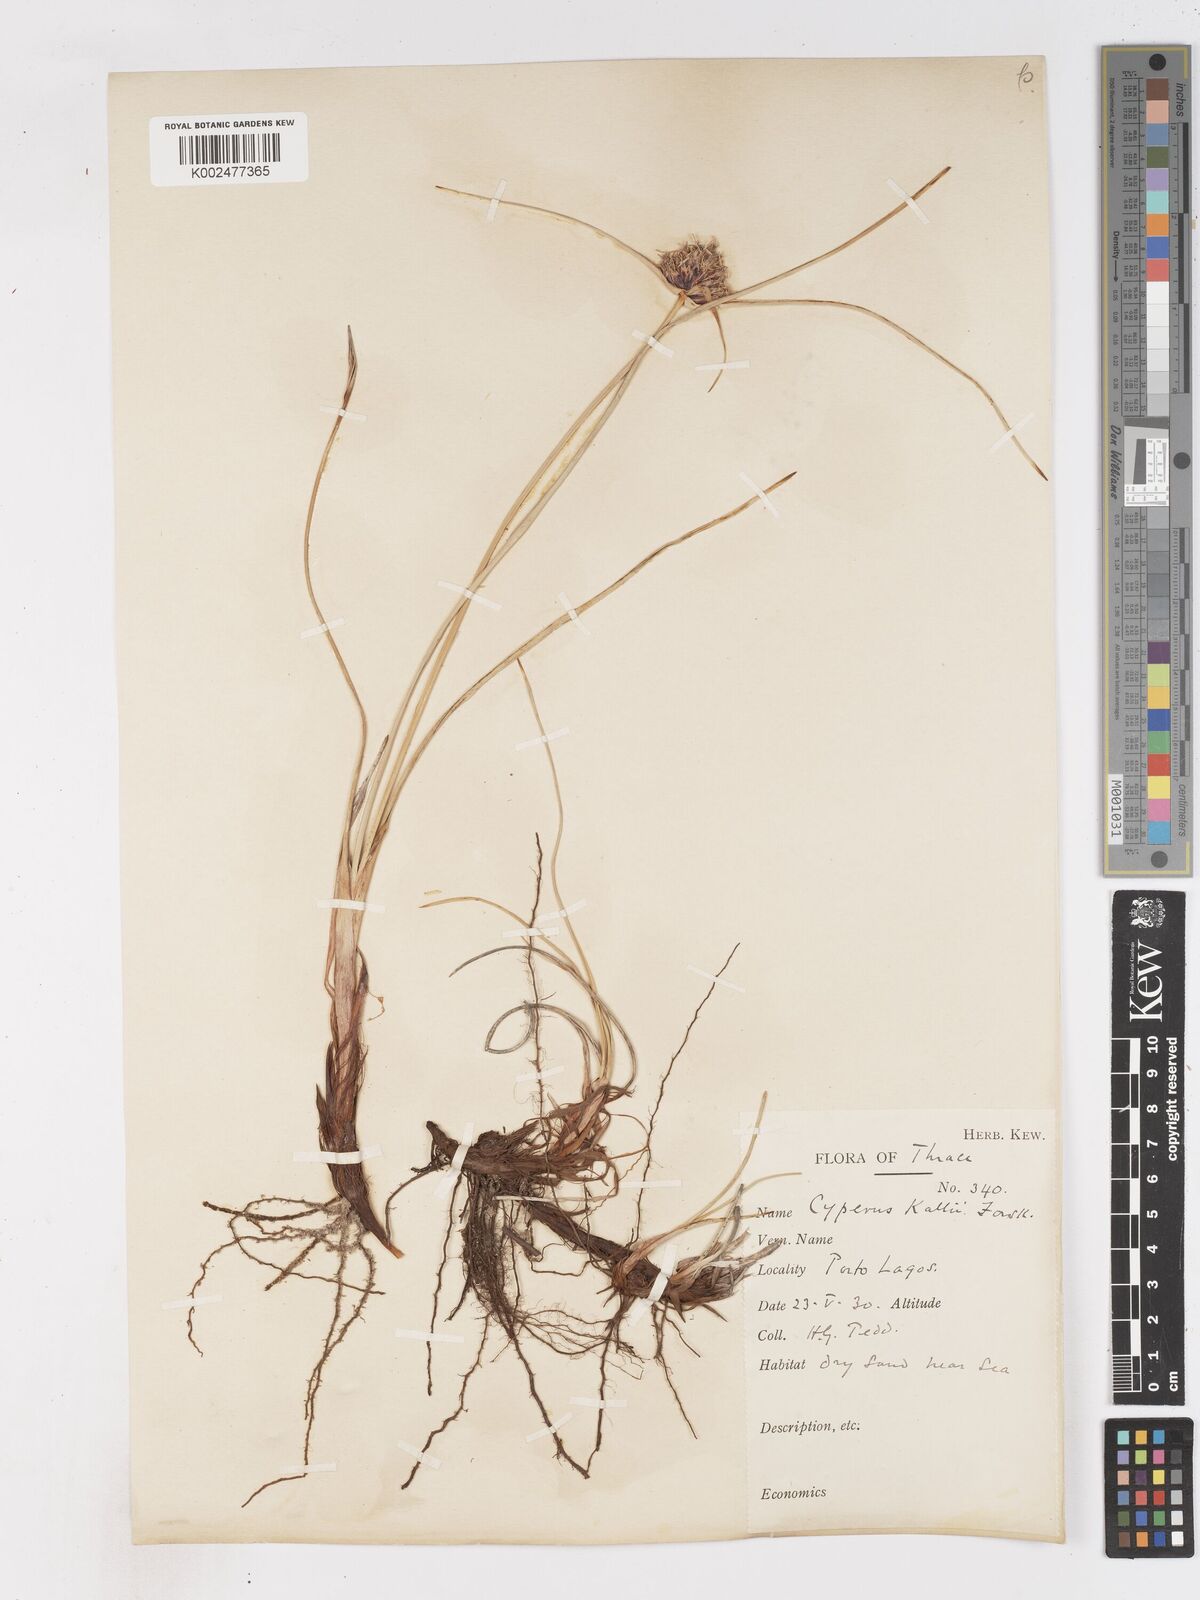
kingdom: Plantae
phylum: Tracheophyta
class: Liliopsida
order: Poales
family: Cyperaceae
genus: Cyperus
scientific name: Cyperus capitatus
